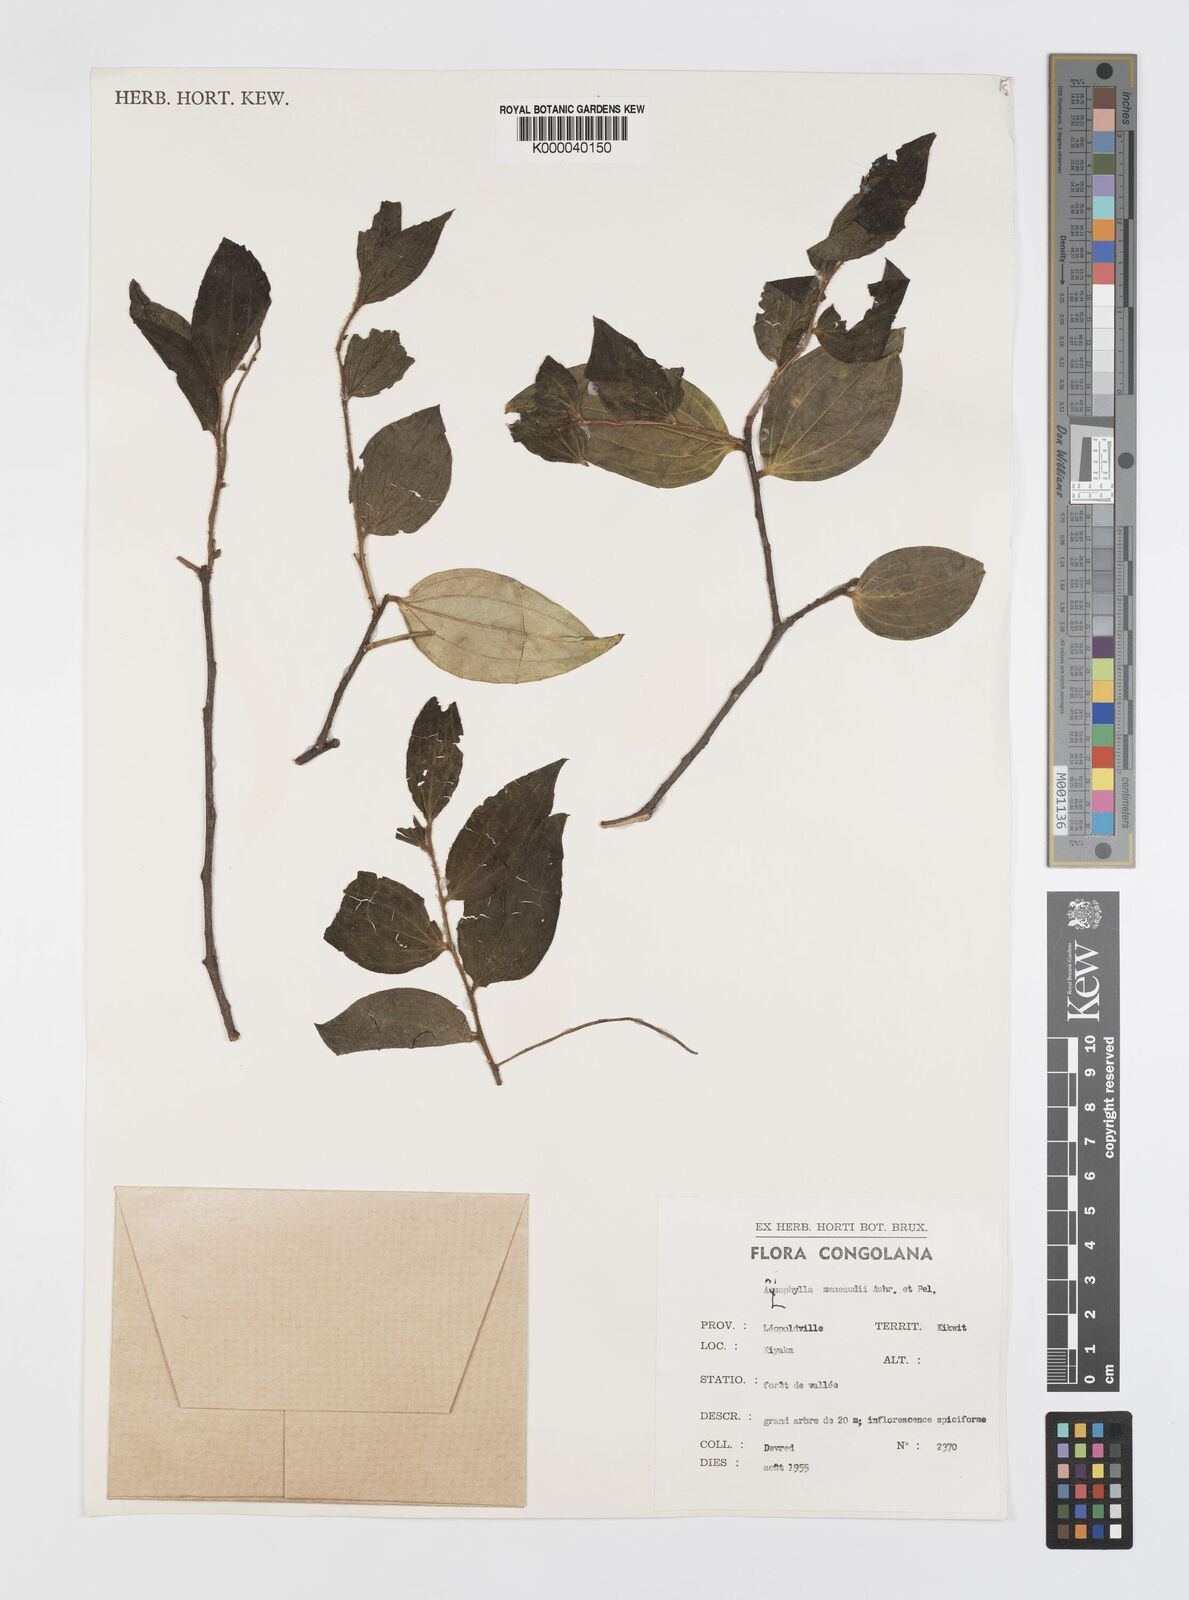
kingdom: Plantae
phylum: Tracheophyta
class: Magnoliopsida
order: Cucurbitales
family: Anisophylleaceae
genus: Anisophyllea
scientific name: Anisophyllea
